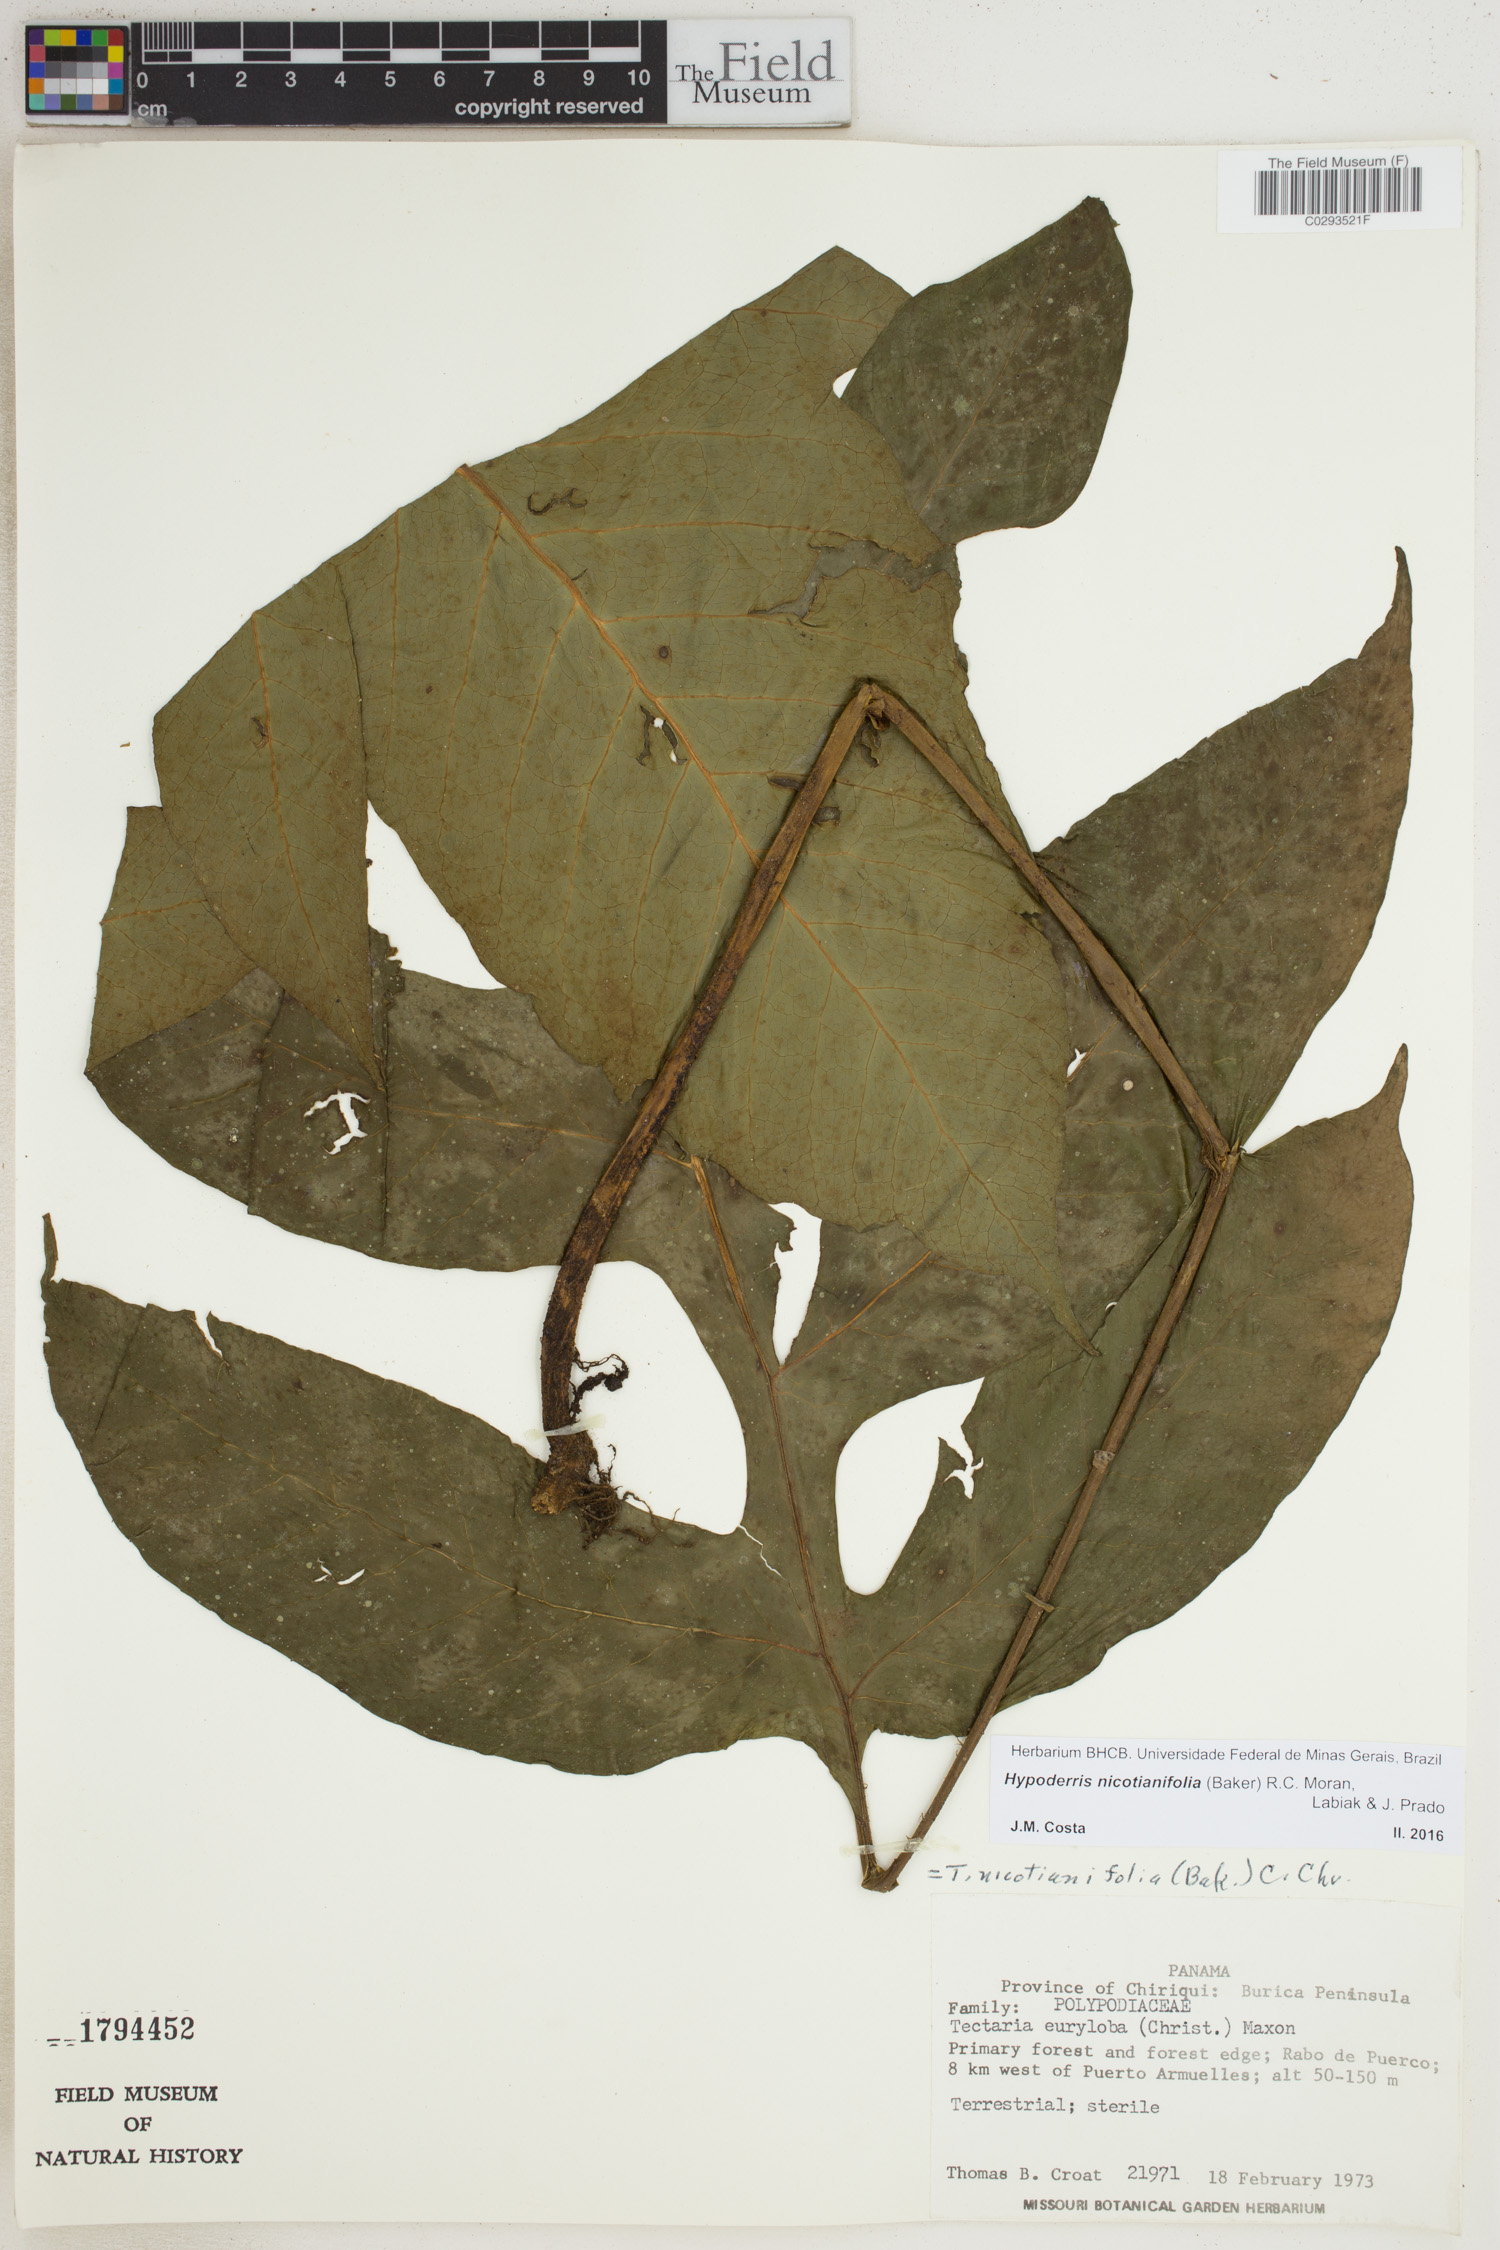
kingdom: Plantae
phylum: Tracheophyta
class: Polypodiopsida
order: Polypodiales
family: Tectariaceae
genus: Hypoderris
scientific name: Hypoderris nicotianifolia
